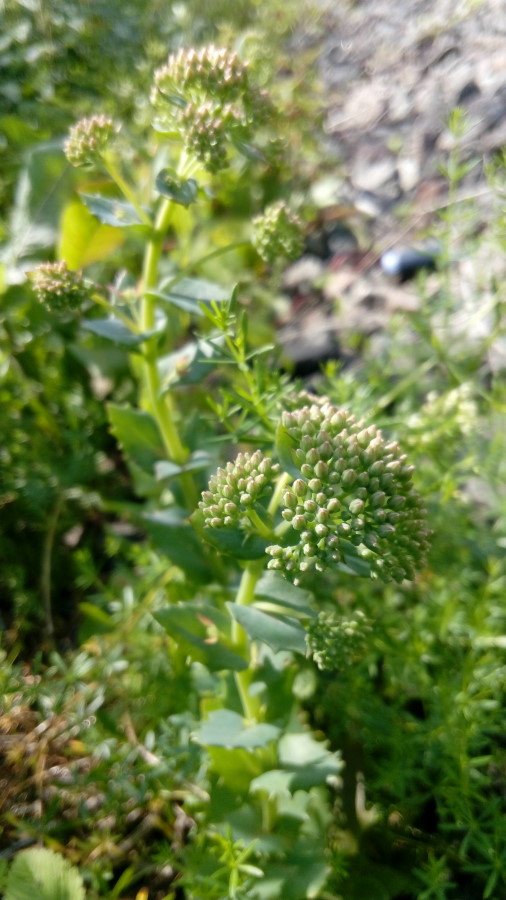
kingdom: Plantae
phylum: Tracheophyta
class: Magnoliopsida
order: Saxifragales
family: Crassulaceae
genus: Hylotelephium
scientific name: Hylotelephium telephium
